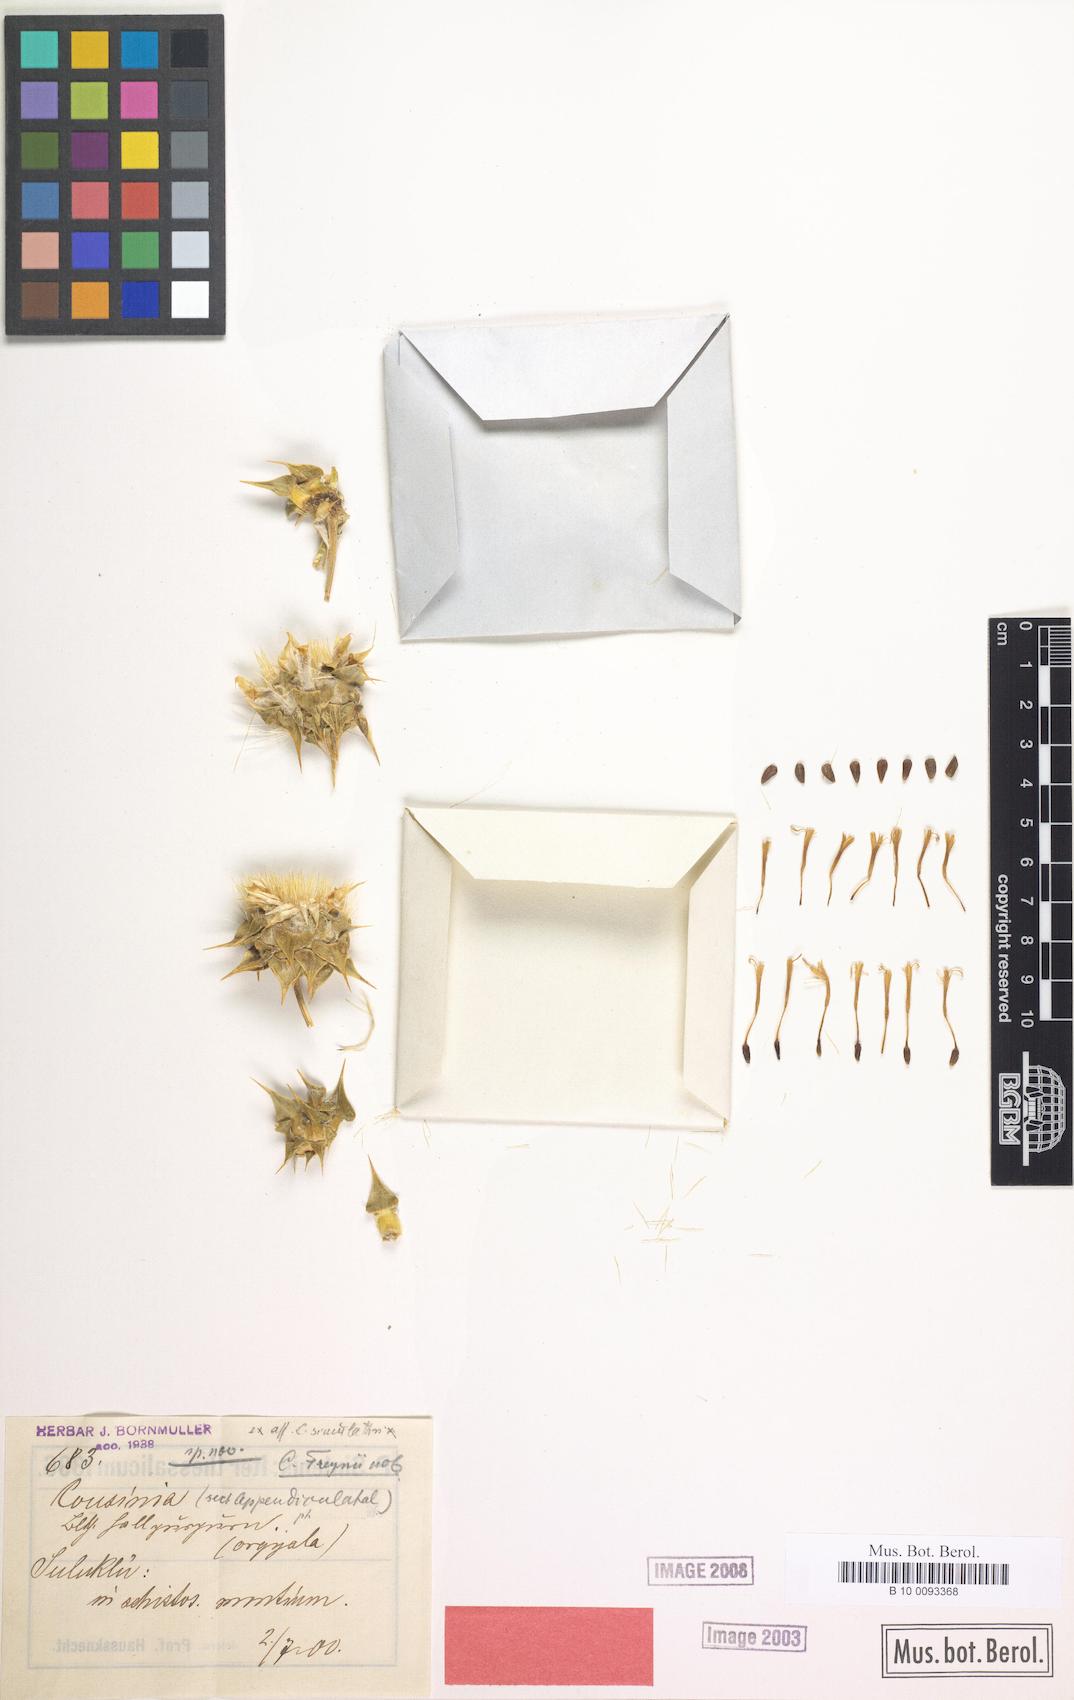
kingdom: Plantae
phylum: Tracheophyta
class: Magnoliopsida
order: Asterales
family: Asteraceae
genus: Cousinia
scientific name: Cousinia freynii
